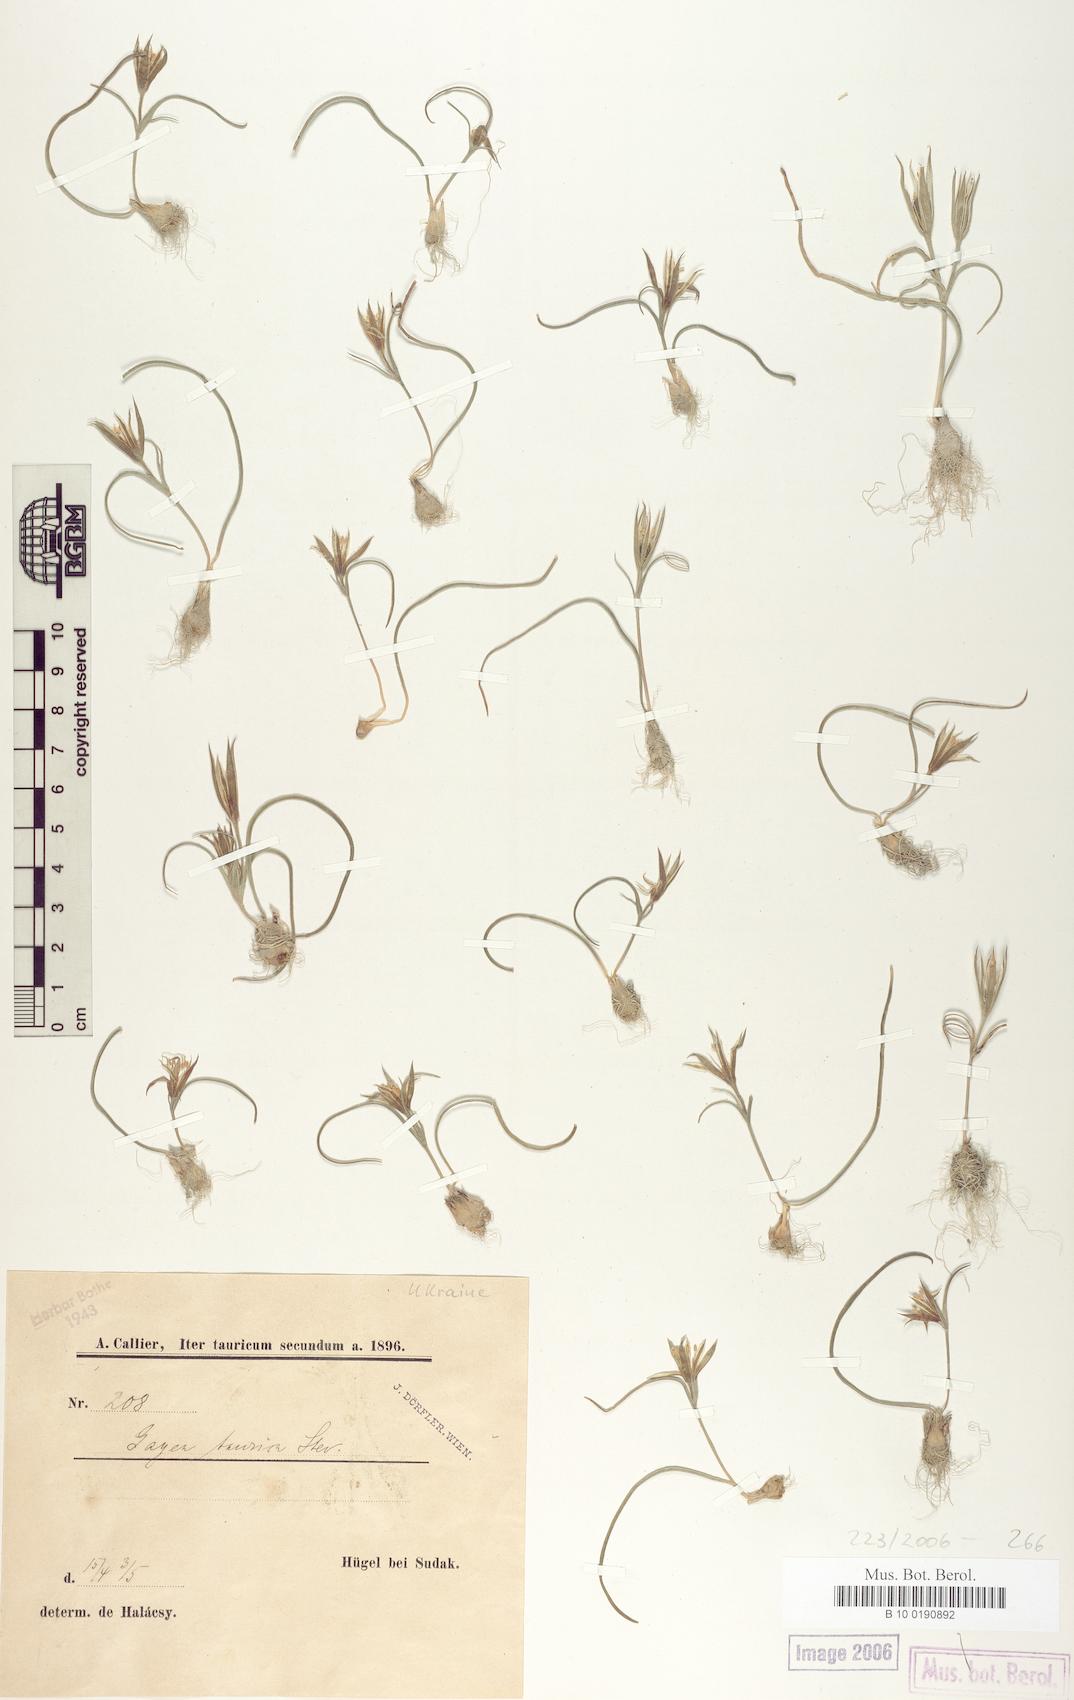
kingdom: Plantae
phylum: Tracheophyta
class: Liliopsida
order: Liliales
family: Liliaceae
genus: Gagea
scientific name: Gagea taurica
